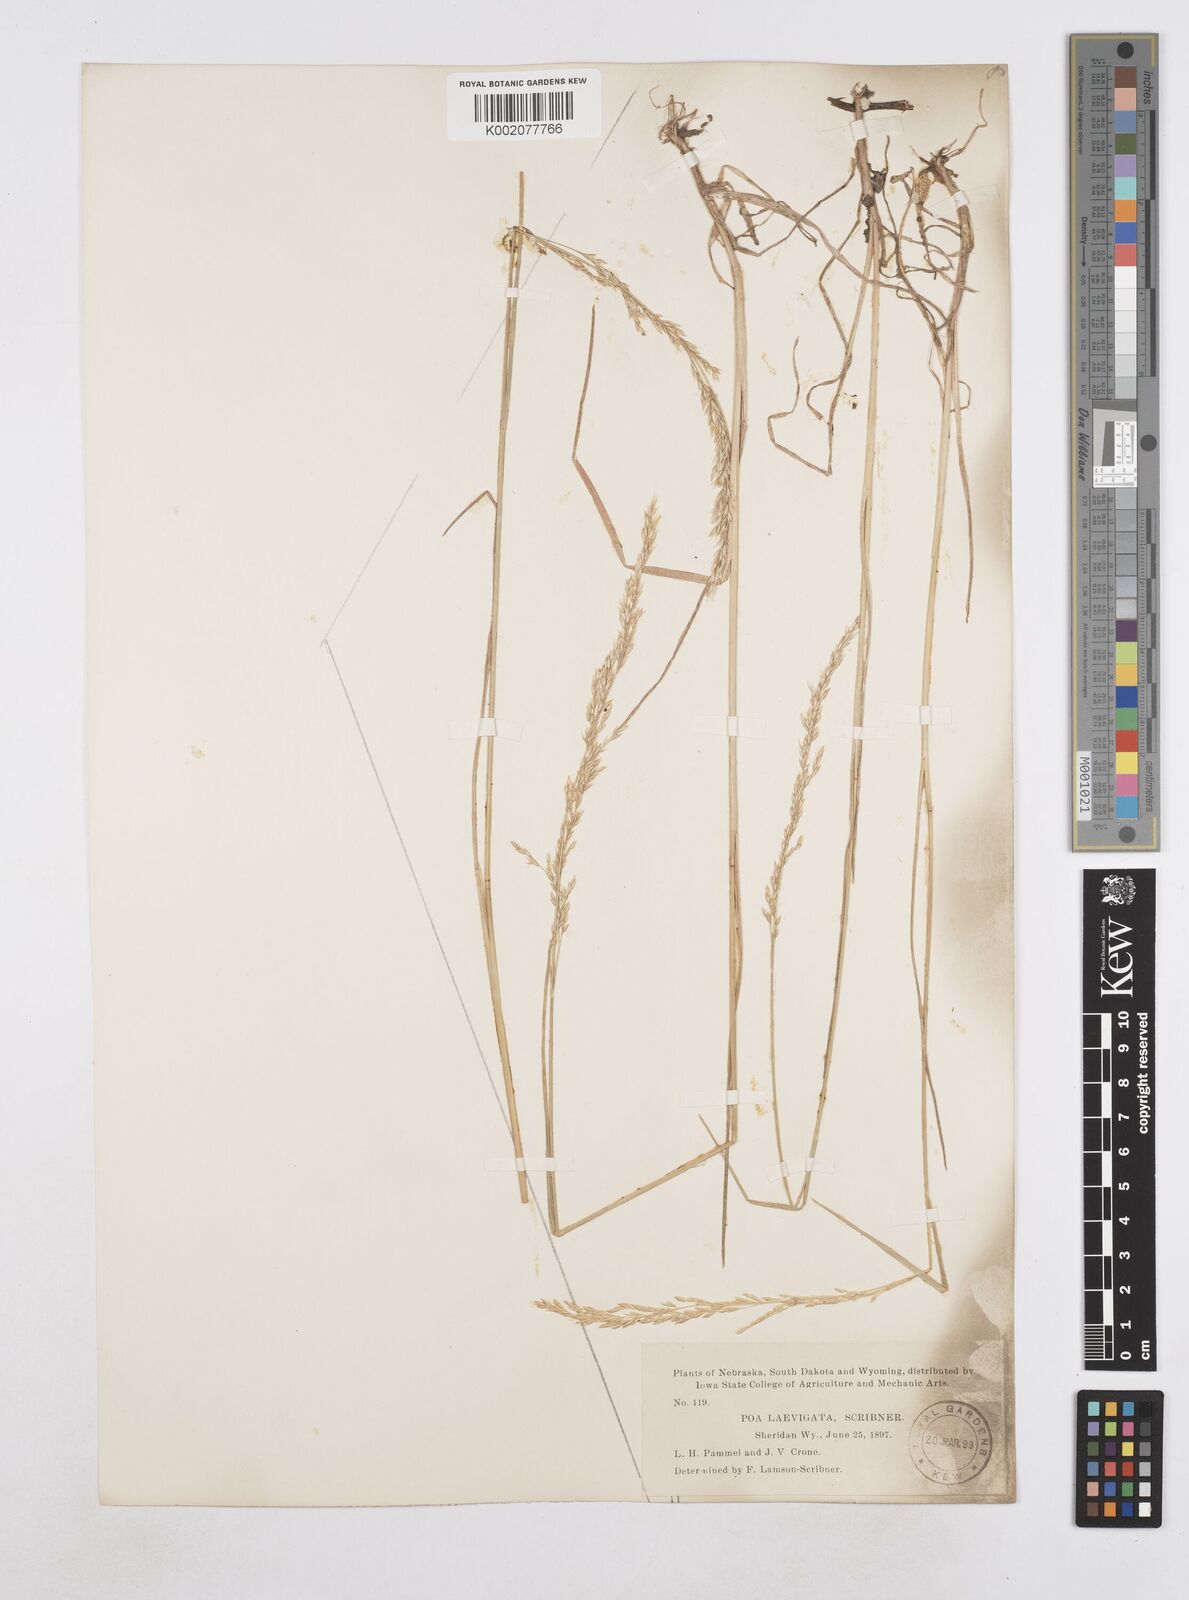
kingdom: Plantae
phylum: Tracheophyta
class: Liliopsida
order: Poales
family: Poaceae
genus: Poa
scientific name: Poa secunda
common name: Sandberg bluegrass
